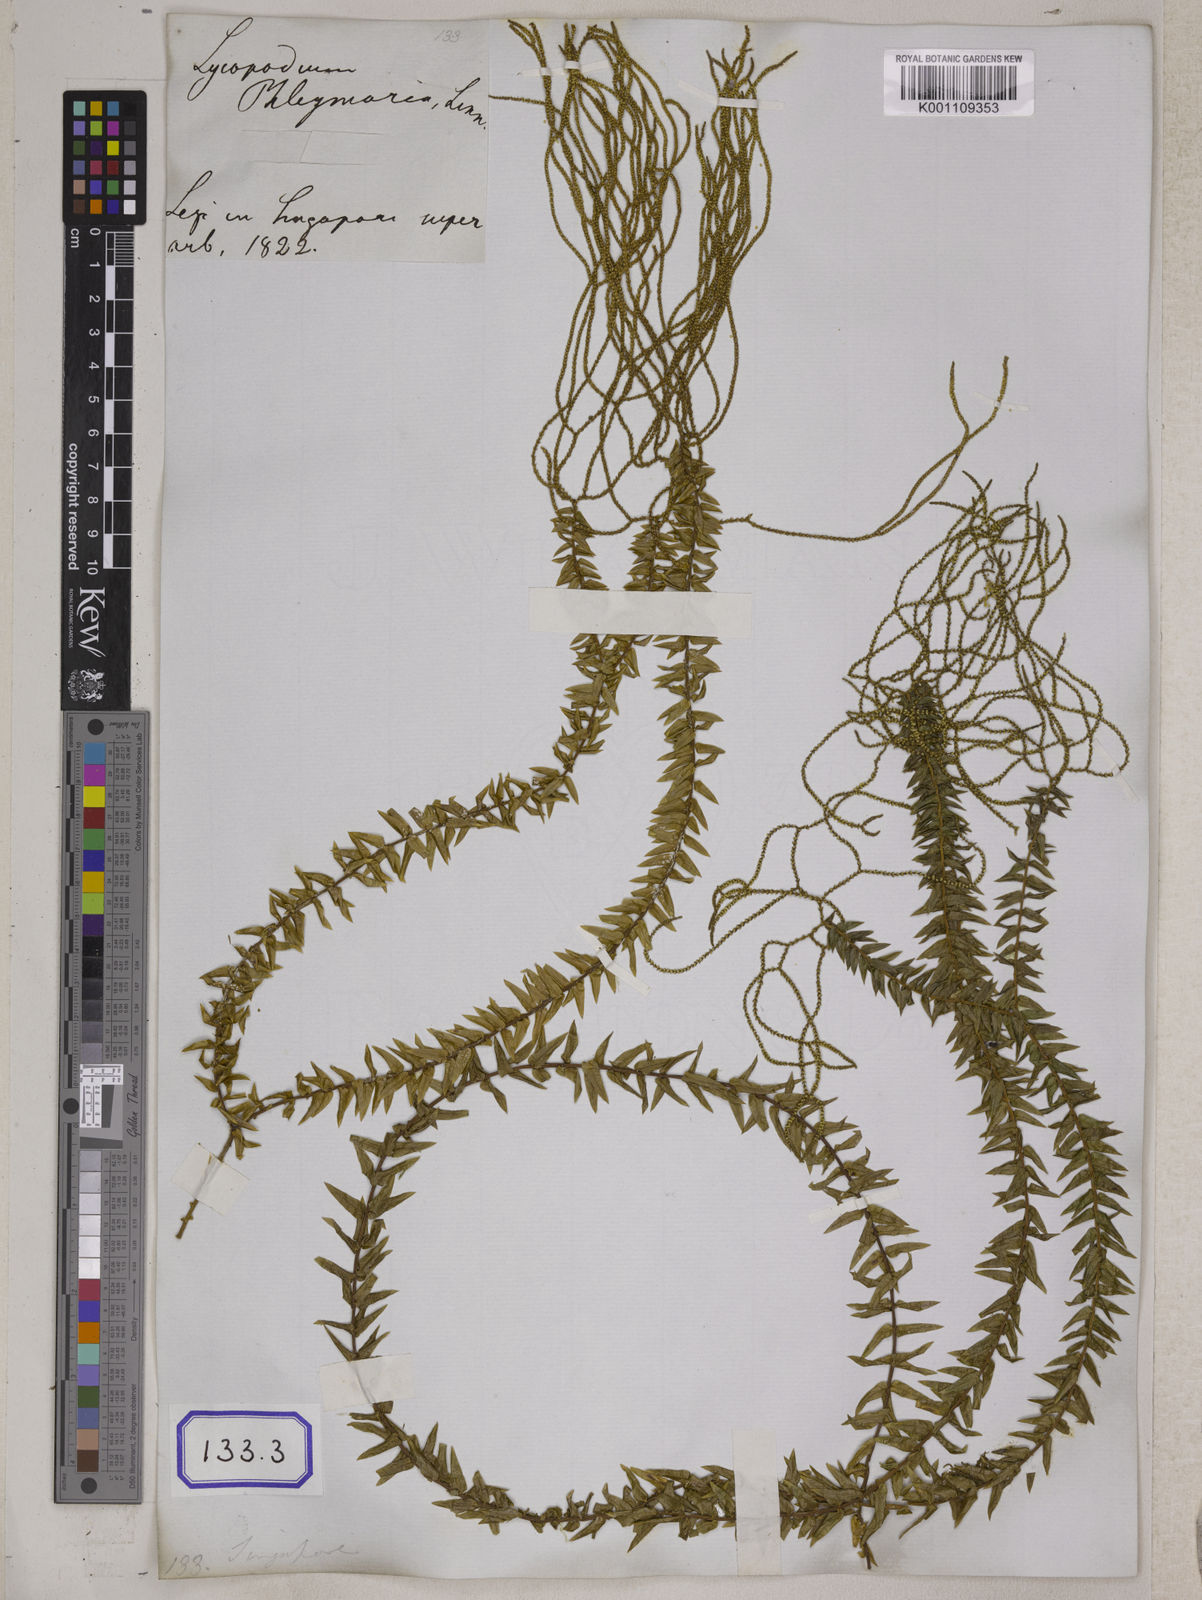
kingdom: Plantae
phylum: Tracheophyta
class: Lycopodiopsida
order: Lycopodiales
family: Lycopodiaceae
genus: Phlegmariurus
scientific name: Phlegmariurus phlegmaria
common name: Coarse tassel-fern
